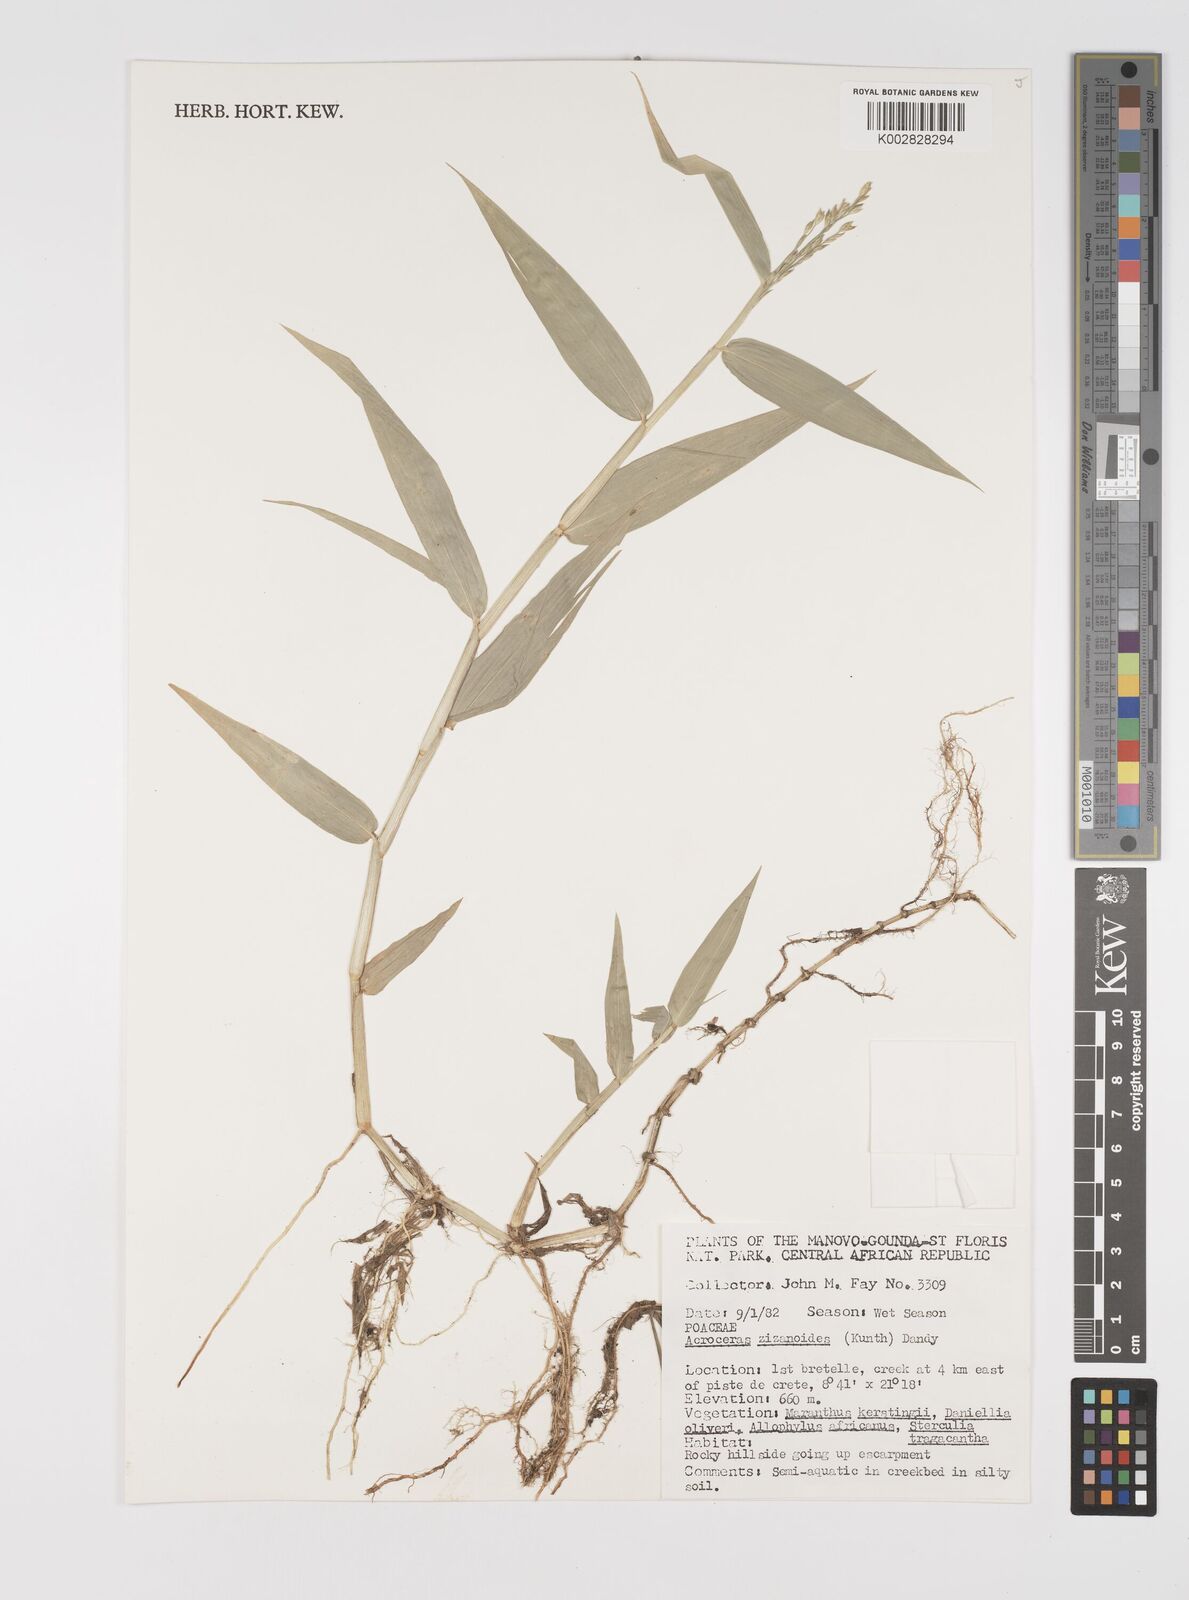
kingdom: Plantae
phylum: Tracheophyta
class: Liliopsida
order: Poales
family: Poaceae
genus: Acroceras
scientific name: Acroceras zizanioides
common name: Oat grass
